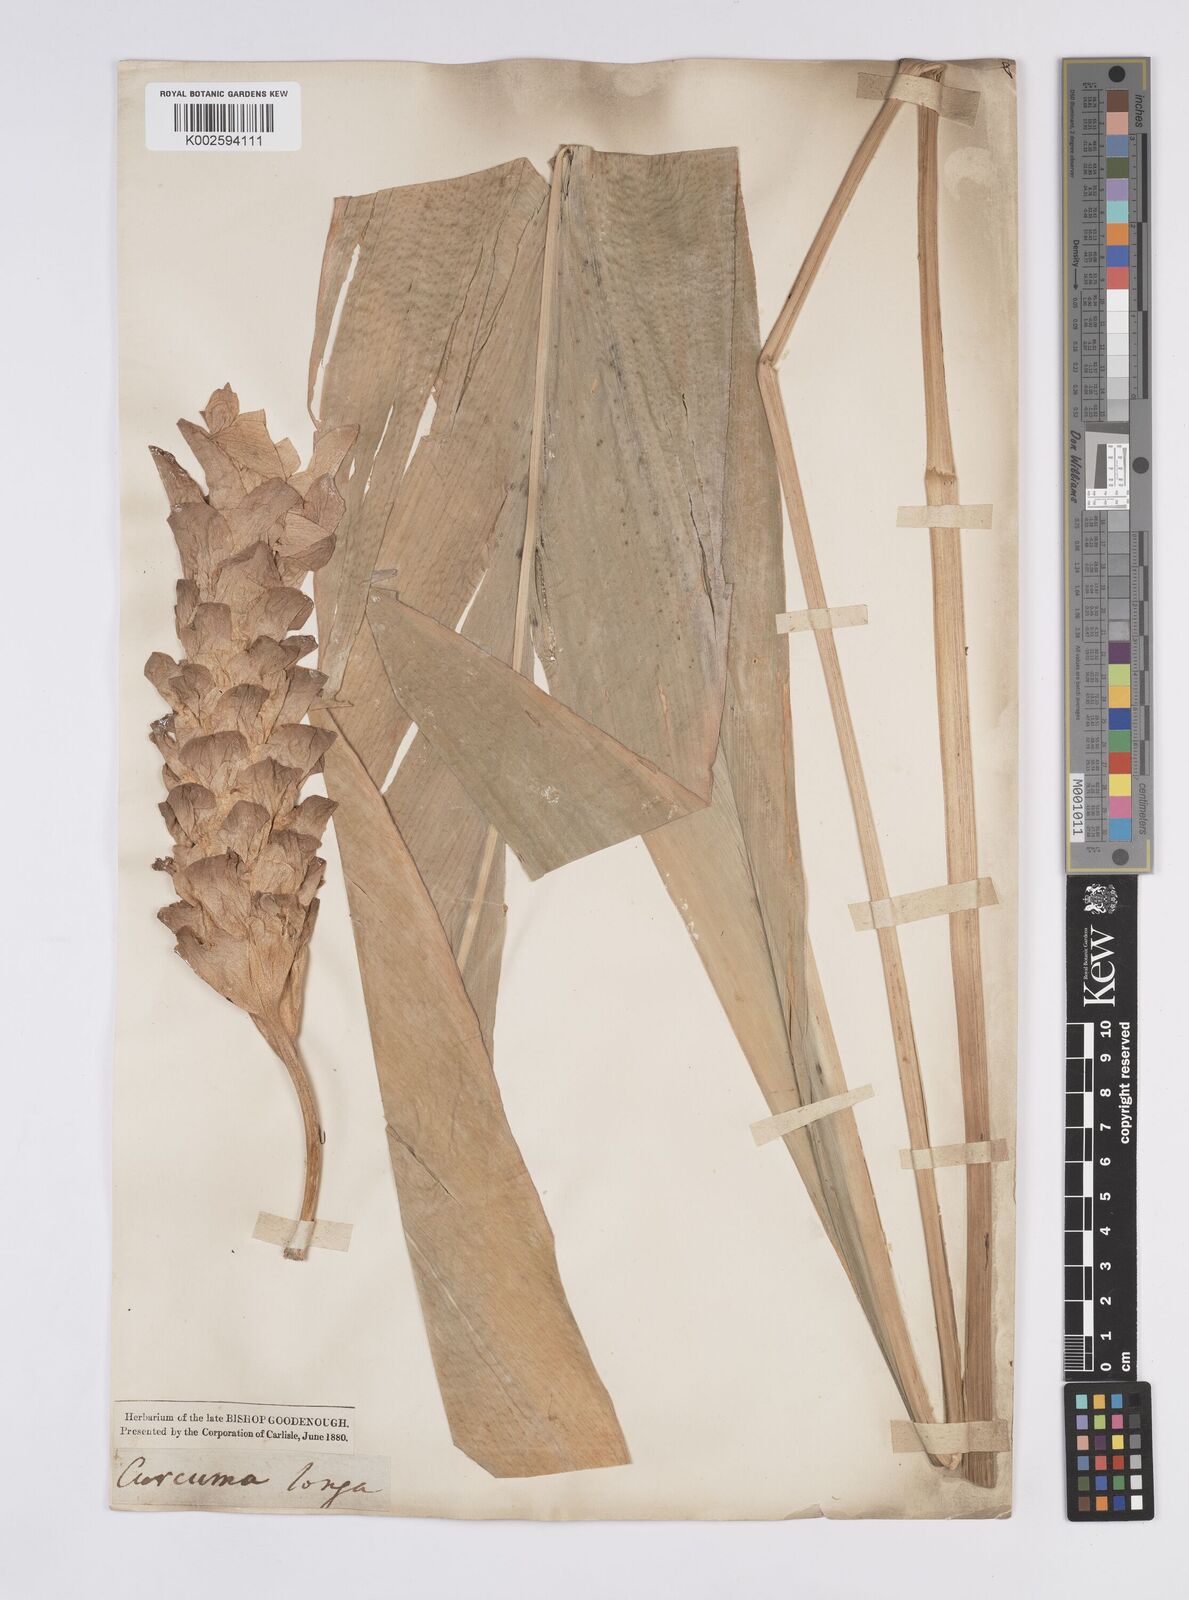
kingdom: Plantae
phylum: Tracheophyta
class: Liliopsida
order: Zingiberales
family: Zingiberaceae
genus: Curcuma
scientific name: Curcuma longa
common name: Turmeric
